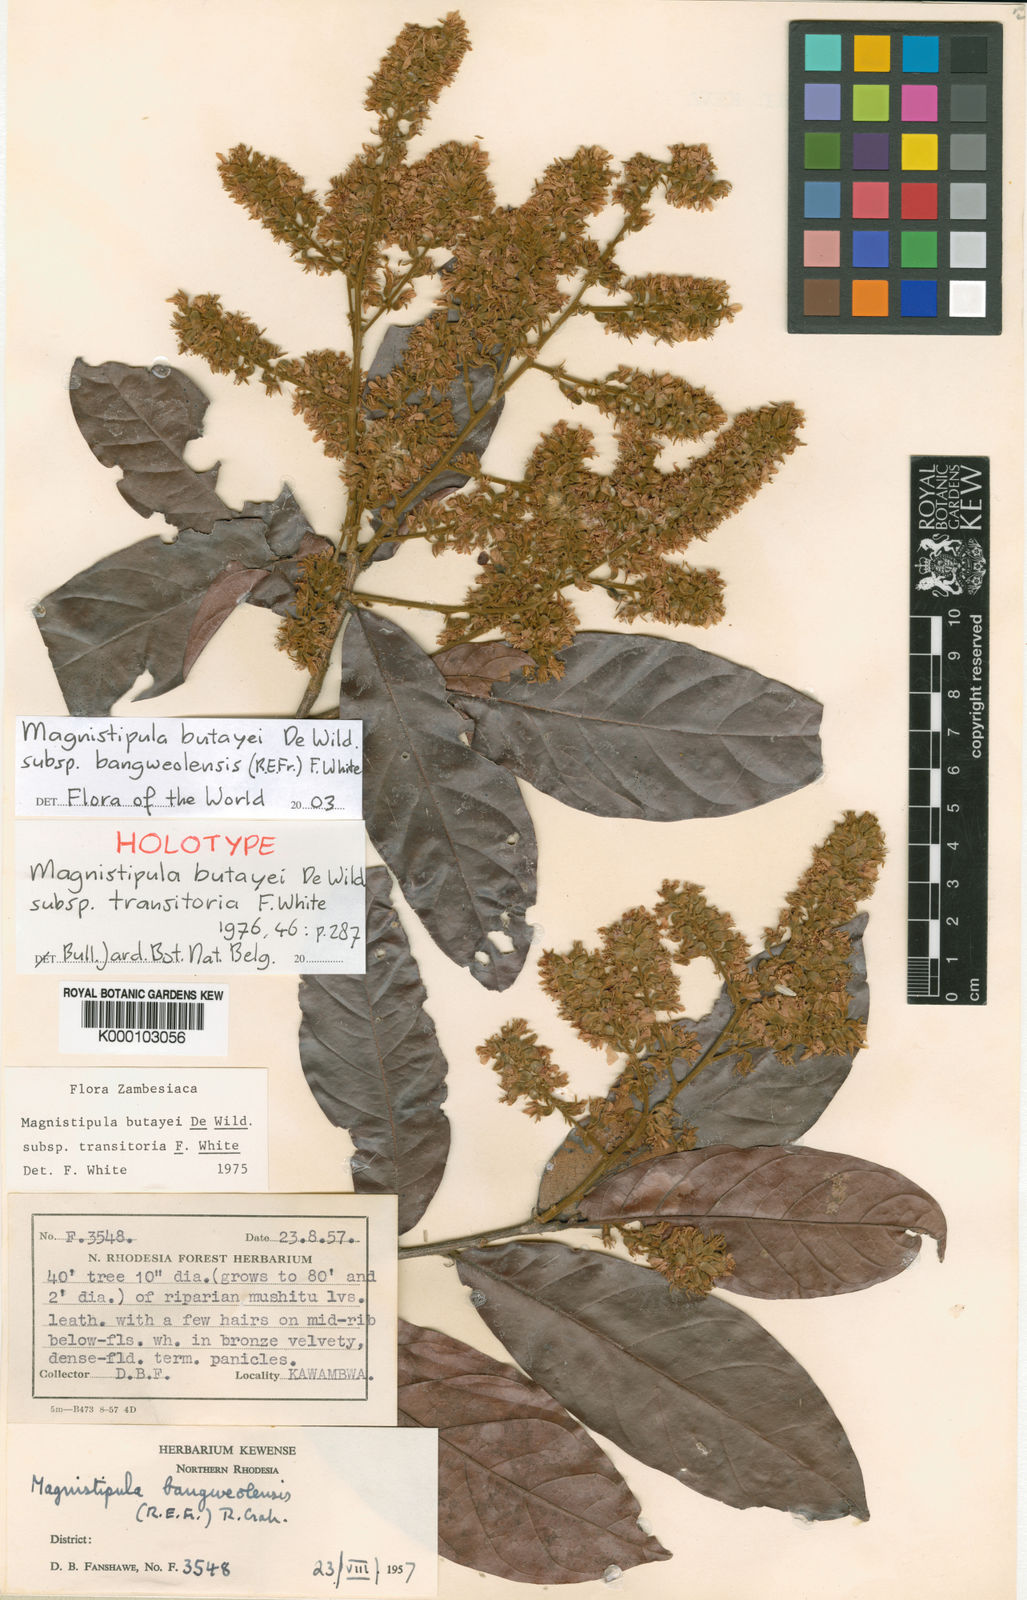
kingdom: Plantae
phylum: Tracheophyta
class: Magnoliopsida
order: Malpighiales
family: Chrysobalanaceae
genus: Magnistipula
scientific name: Magnistipula butayei
